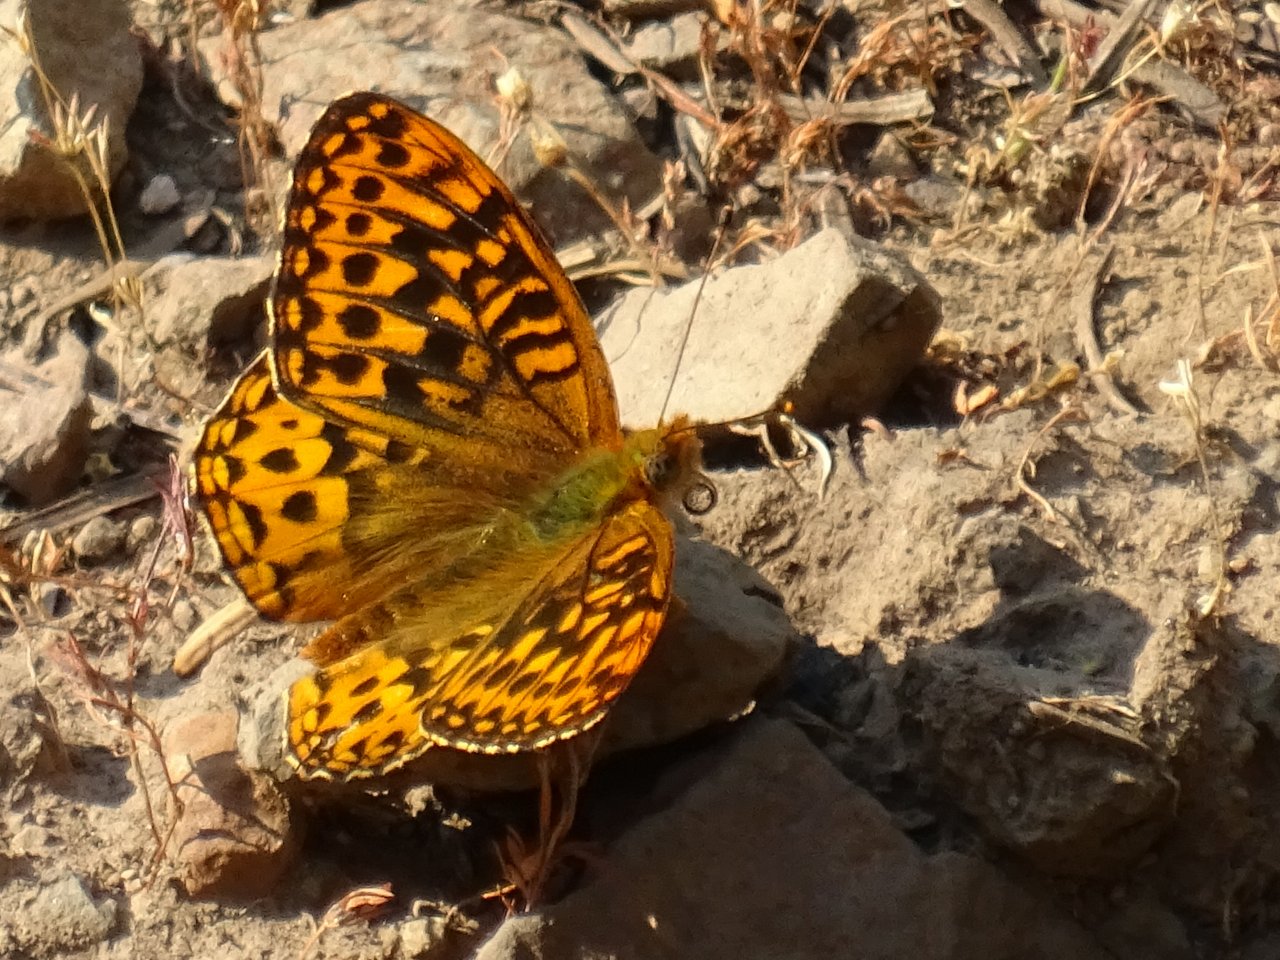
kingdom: Animalia
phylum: Arthropoda
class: Insecta
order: Lepidoptera
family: Nymphalidae
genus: Speyeria
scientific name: Speyeria hydaspe
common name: Hydaspe Fritillary
